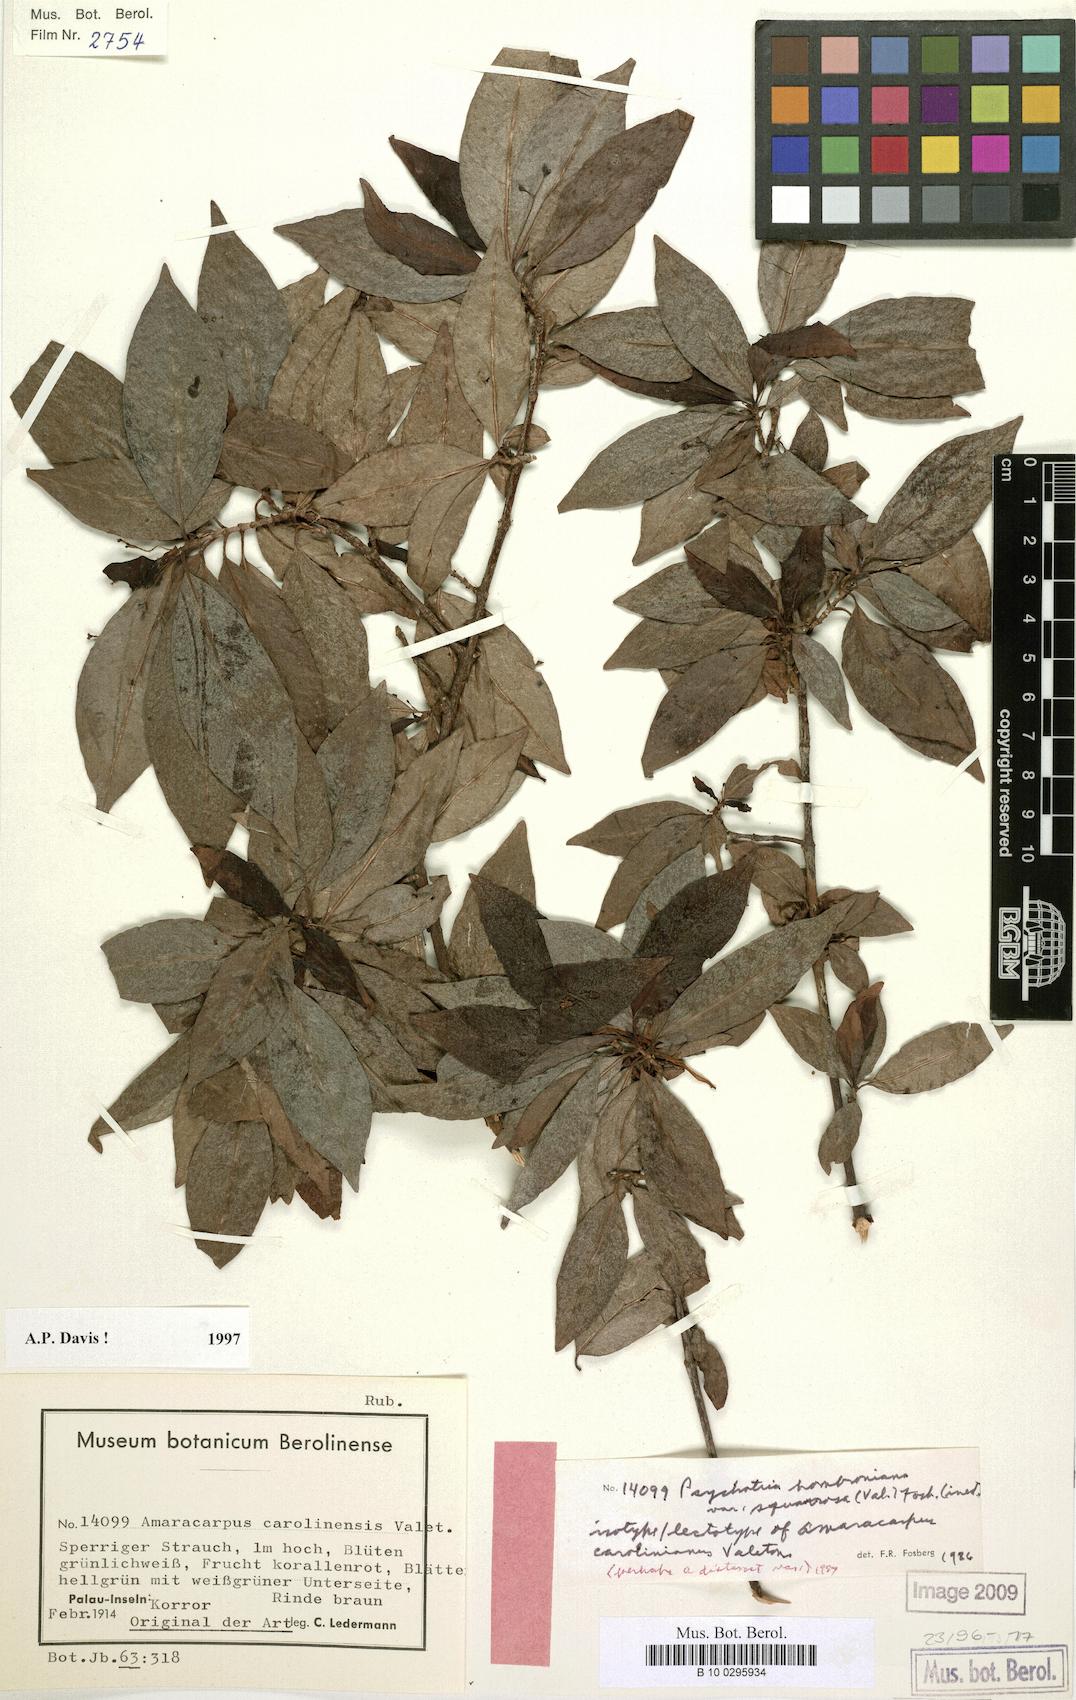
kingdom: Plantae
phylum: Tracheophyta
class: Magnoliopsida
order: Gentianales
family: Rubiaceae
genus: Psychotria
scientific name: Psychotria hombroniana
